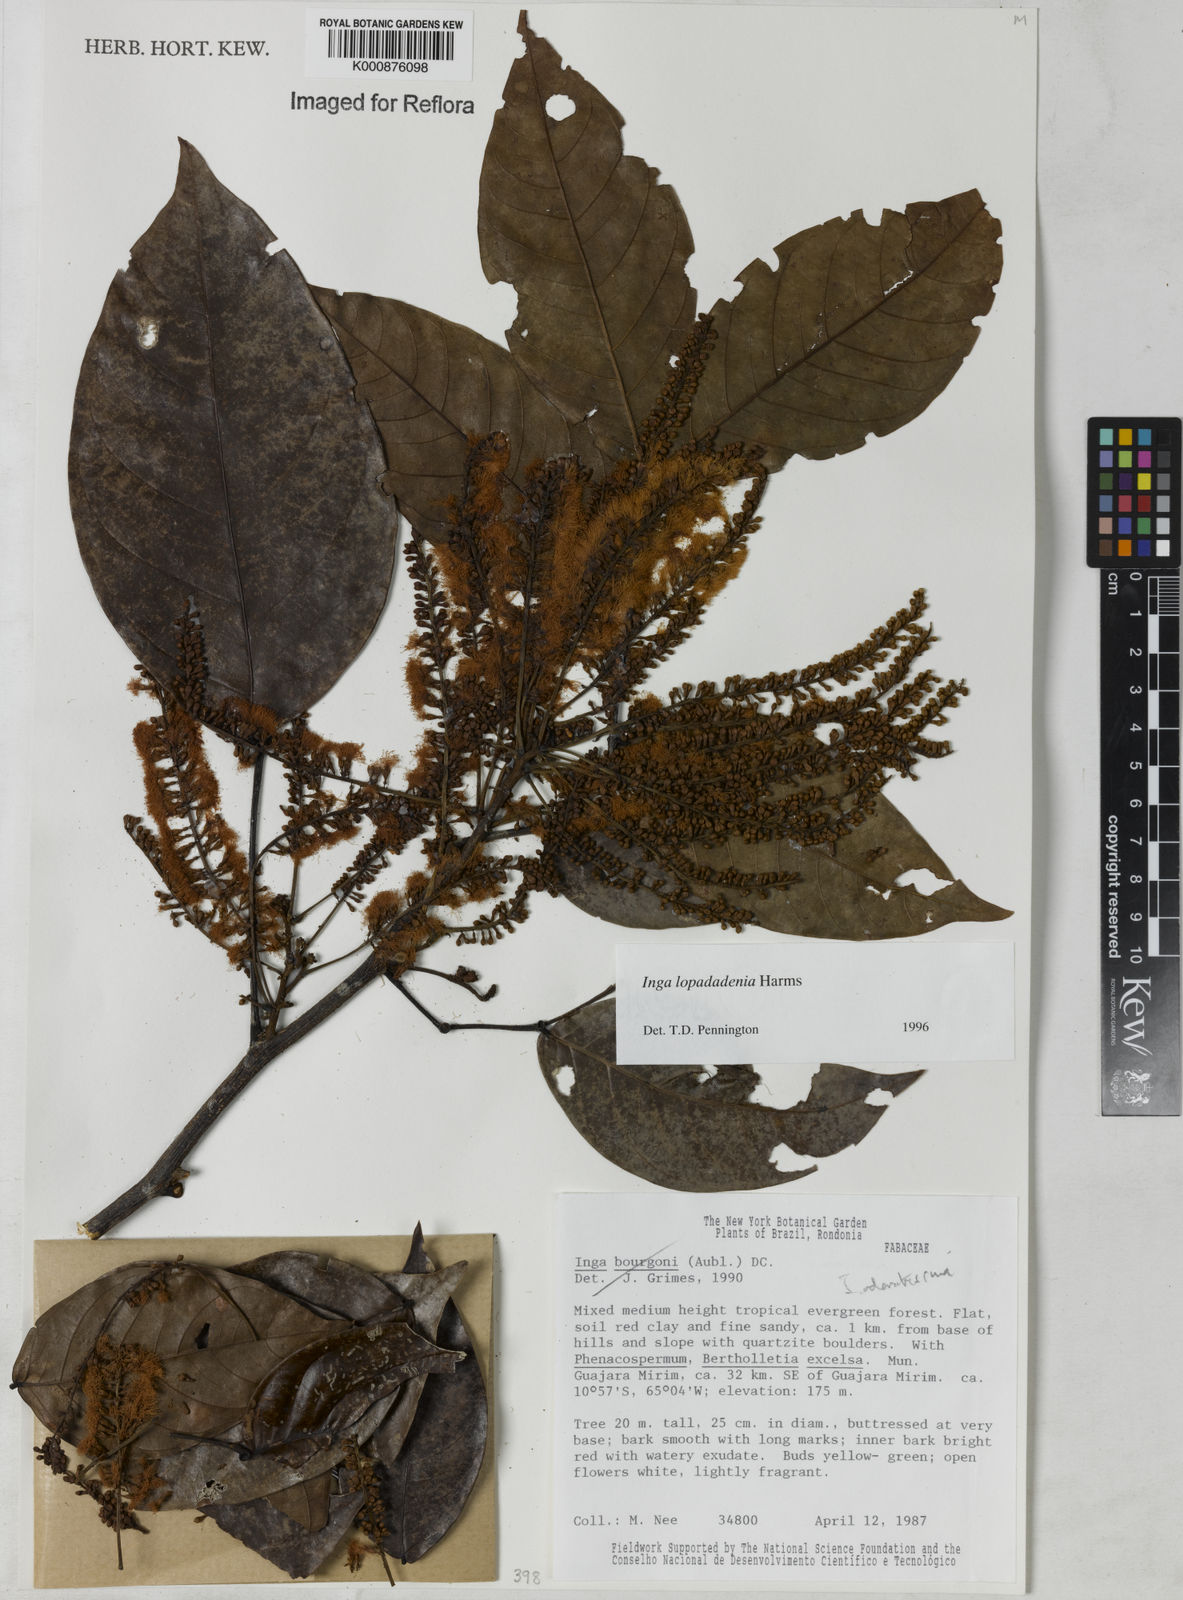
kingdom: Plantae
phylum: Tracheophyta
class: Magnoliopsida
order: Fabales
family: Fabaceae
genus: Inga
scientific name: Inga lopadadenia
